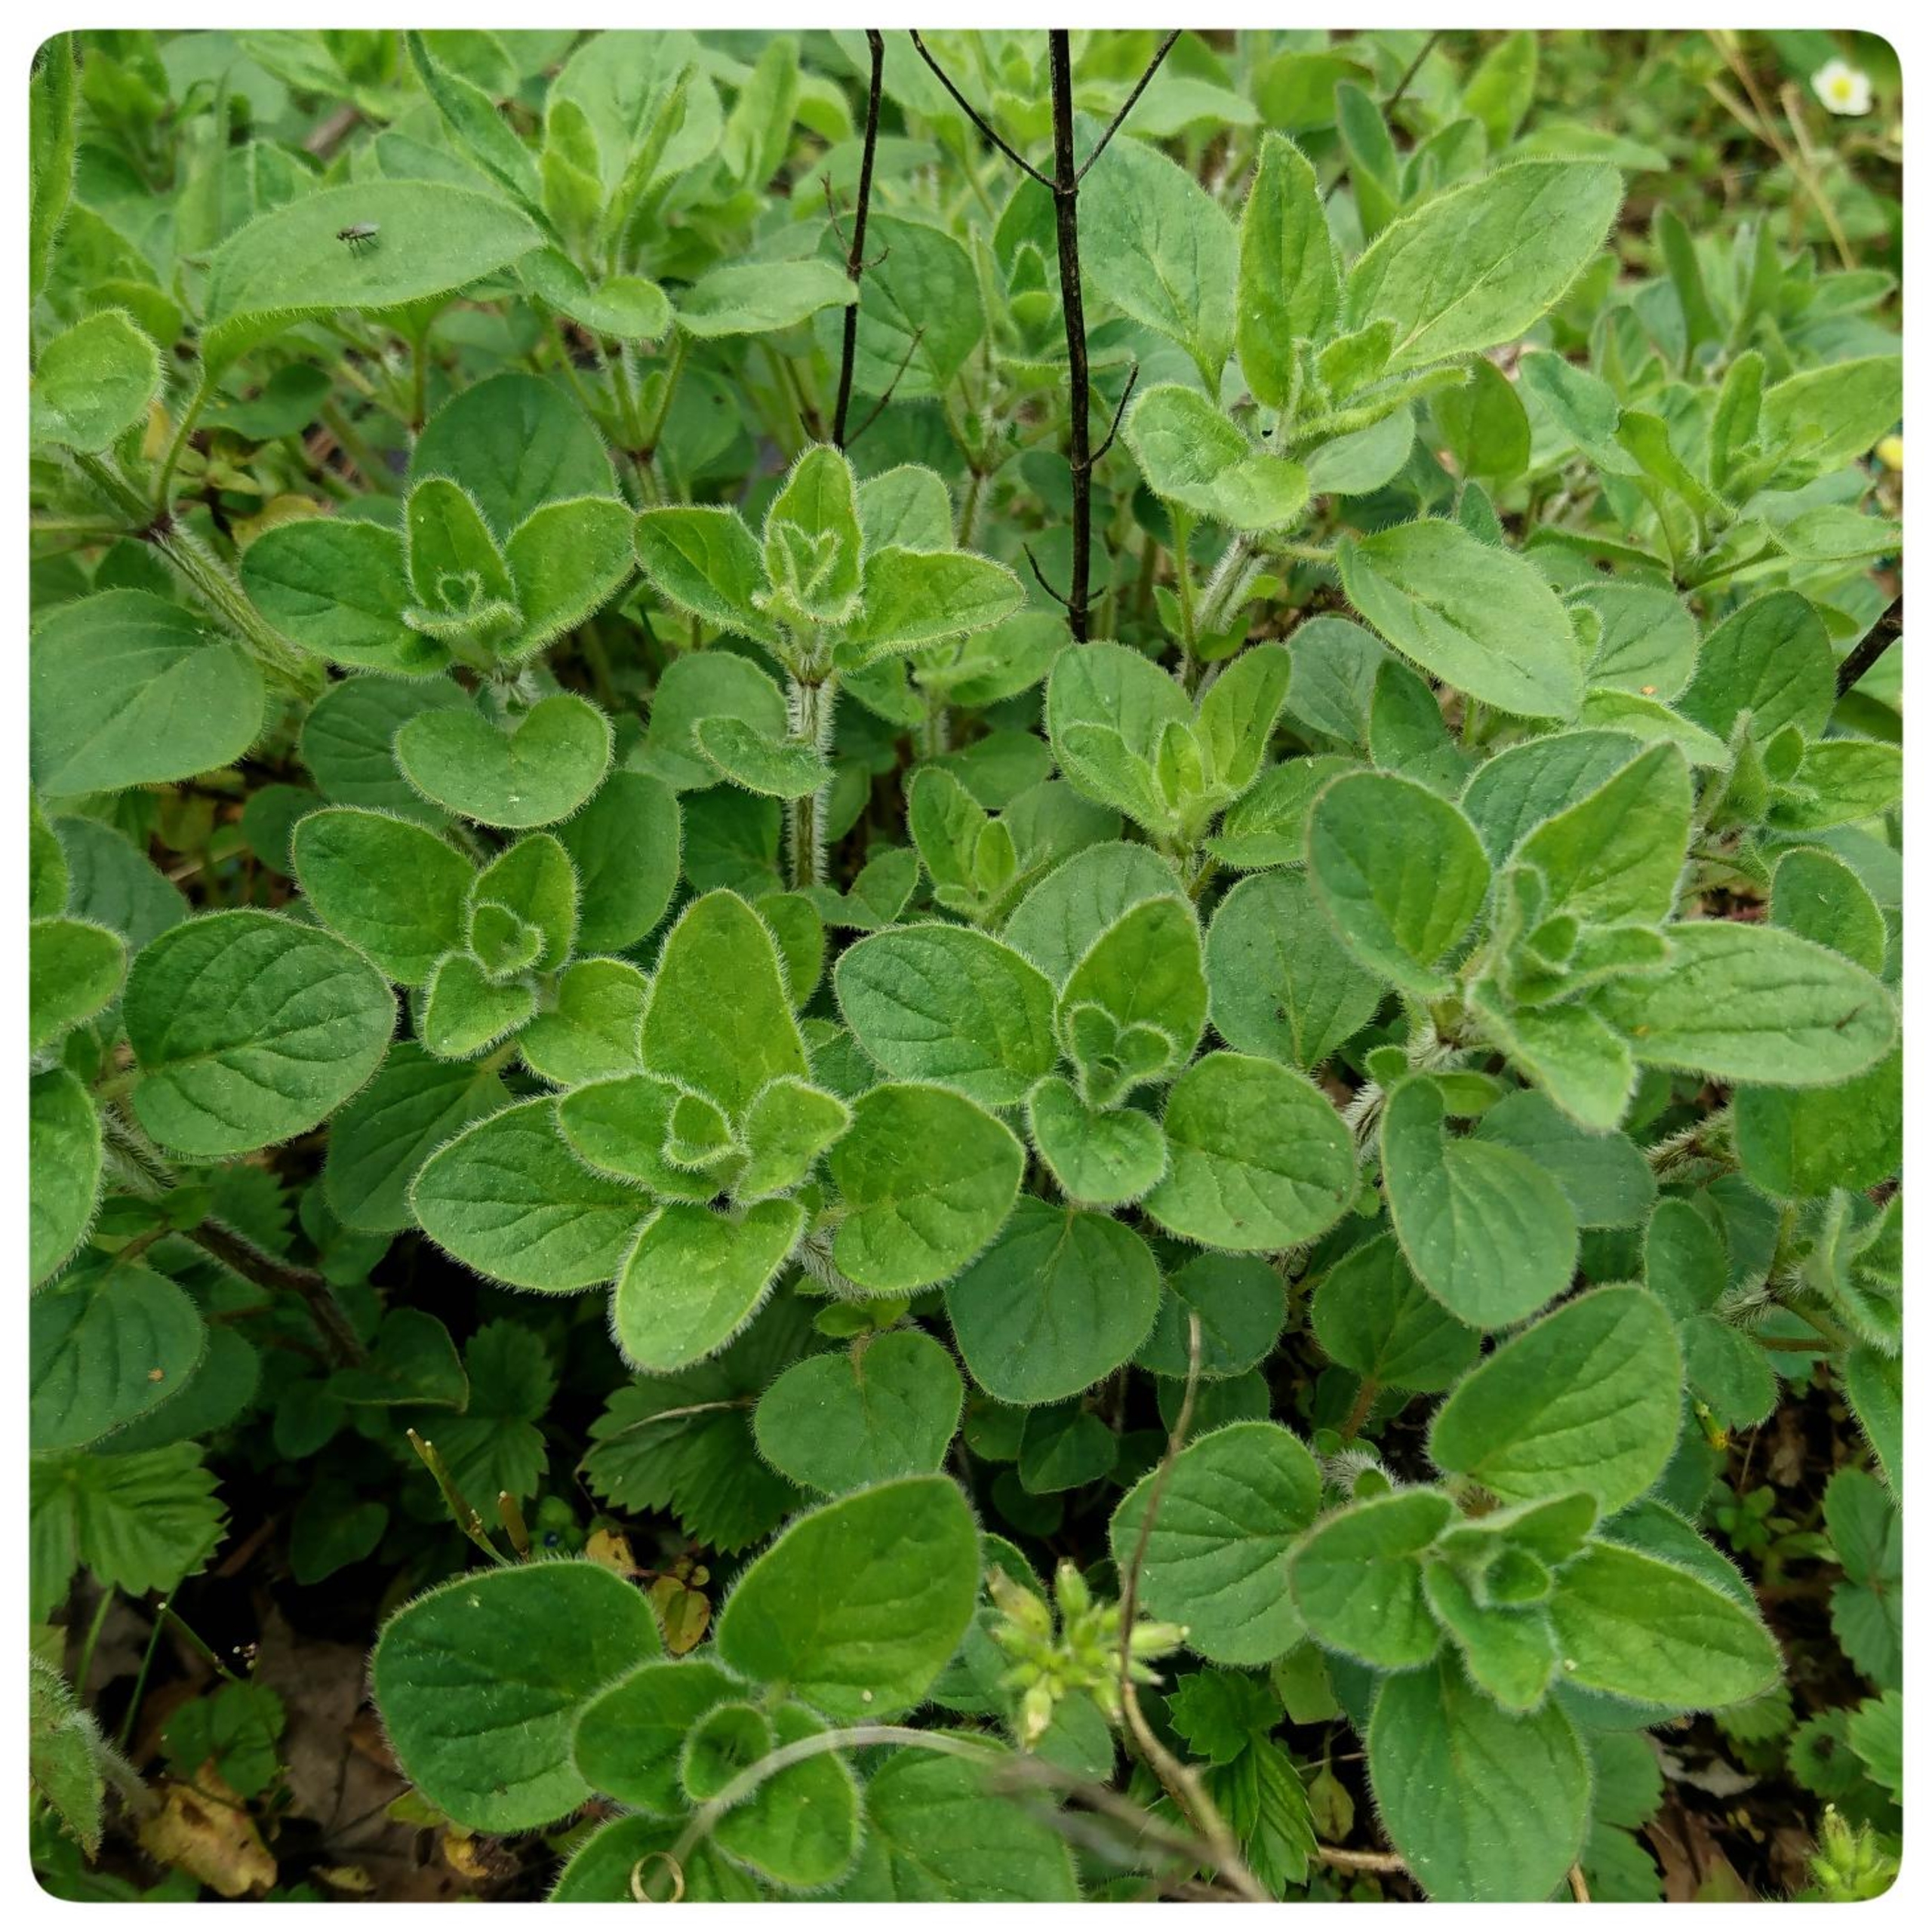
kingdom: Plantae
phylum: Tracheophyta
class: Magnoliopsida
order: Lamiales
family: Lamiaceae
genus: Origanum
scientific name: Origanum
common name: Merianslægten
